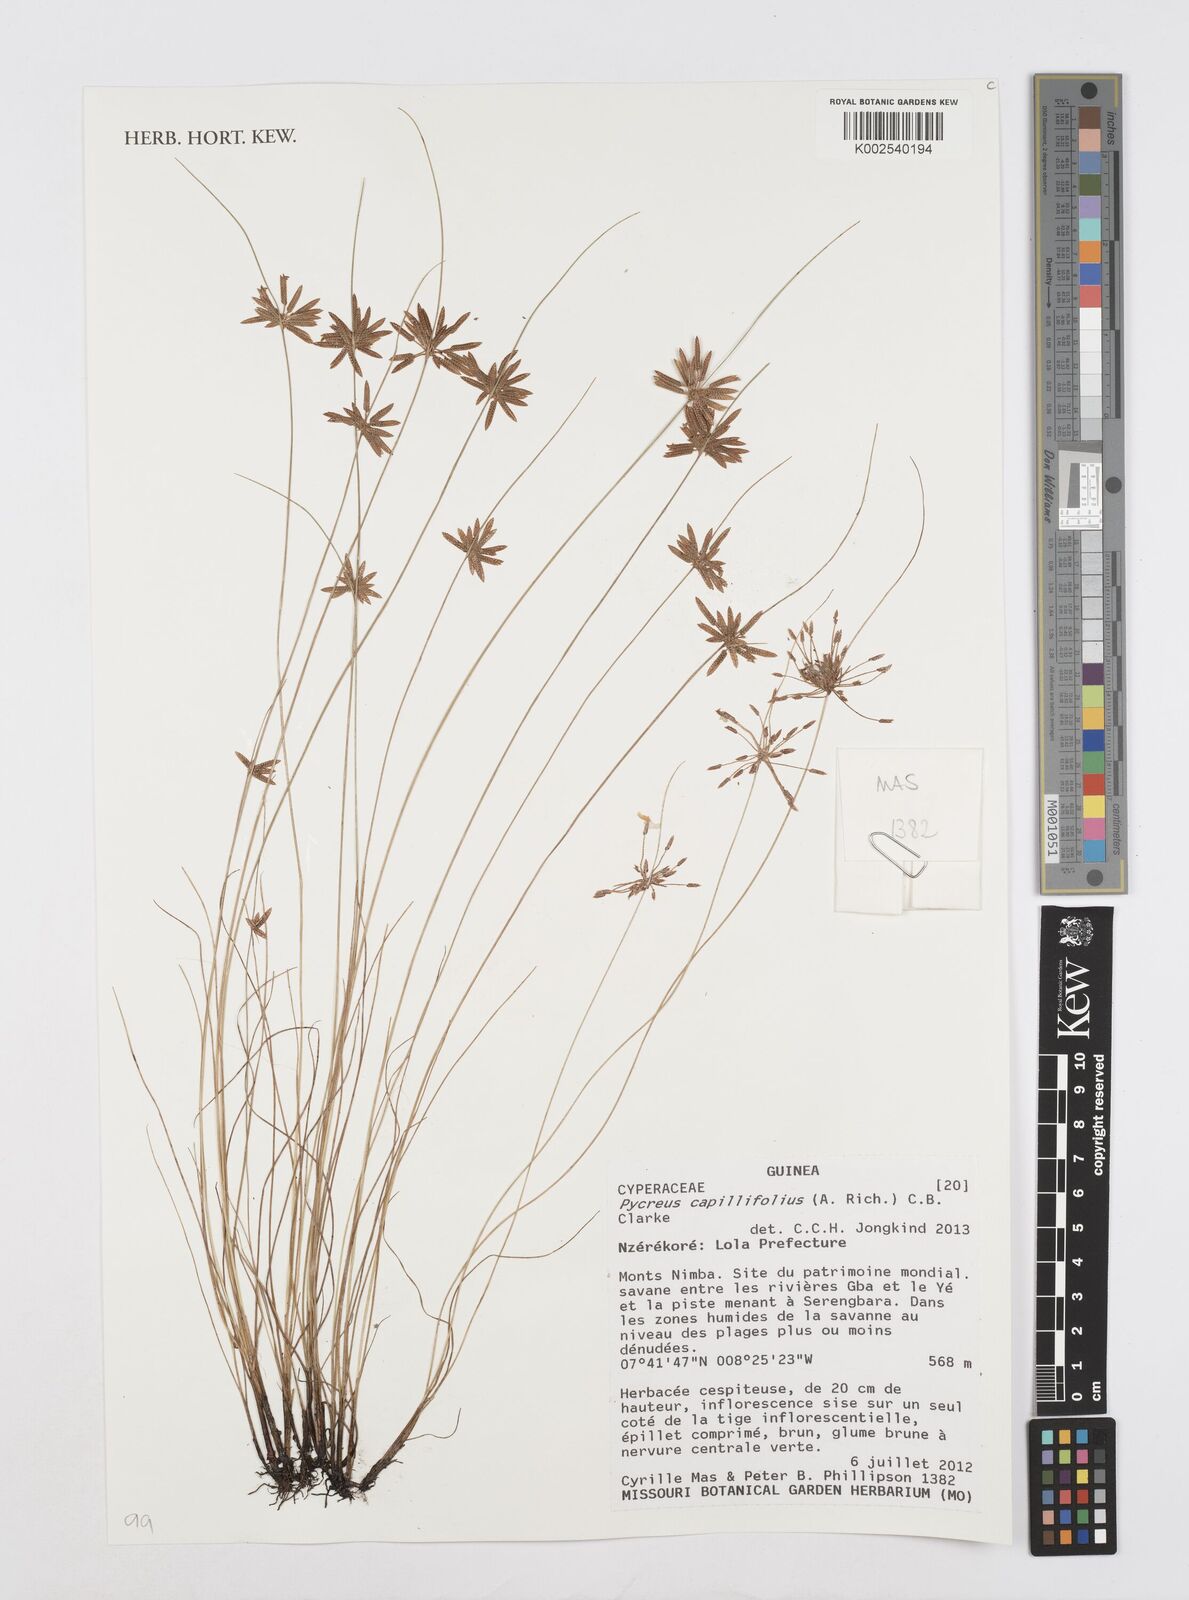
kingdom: Plantae
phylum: Tracheophyta
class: Liliopsida
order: Poales
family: Cyperaceae
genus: Cyperus
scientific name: Cyperus capillifolius
